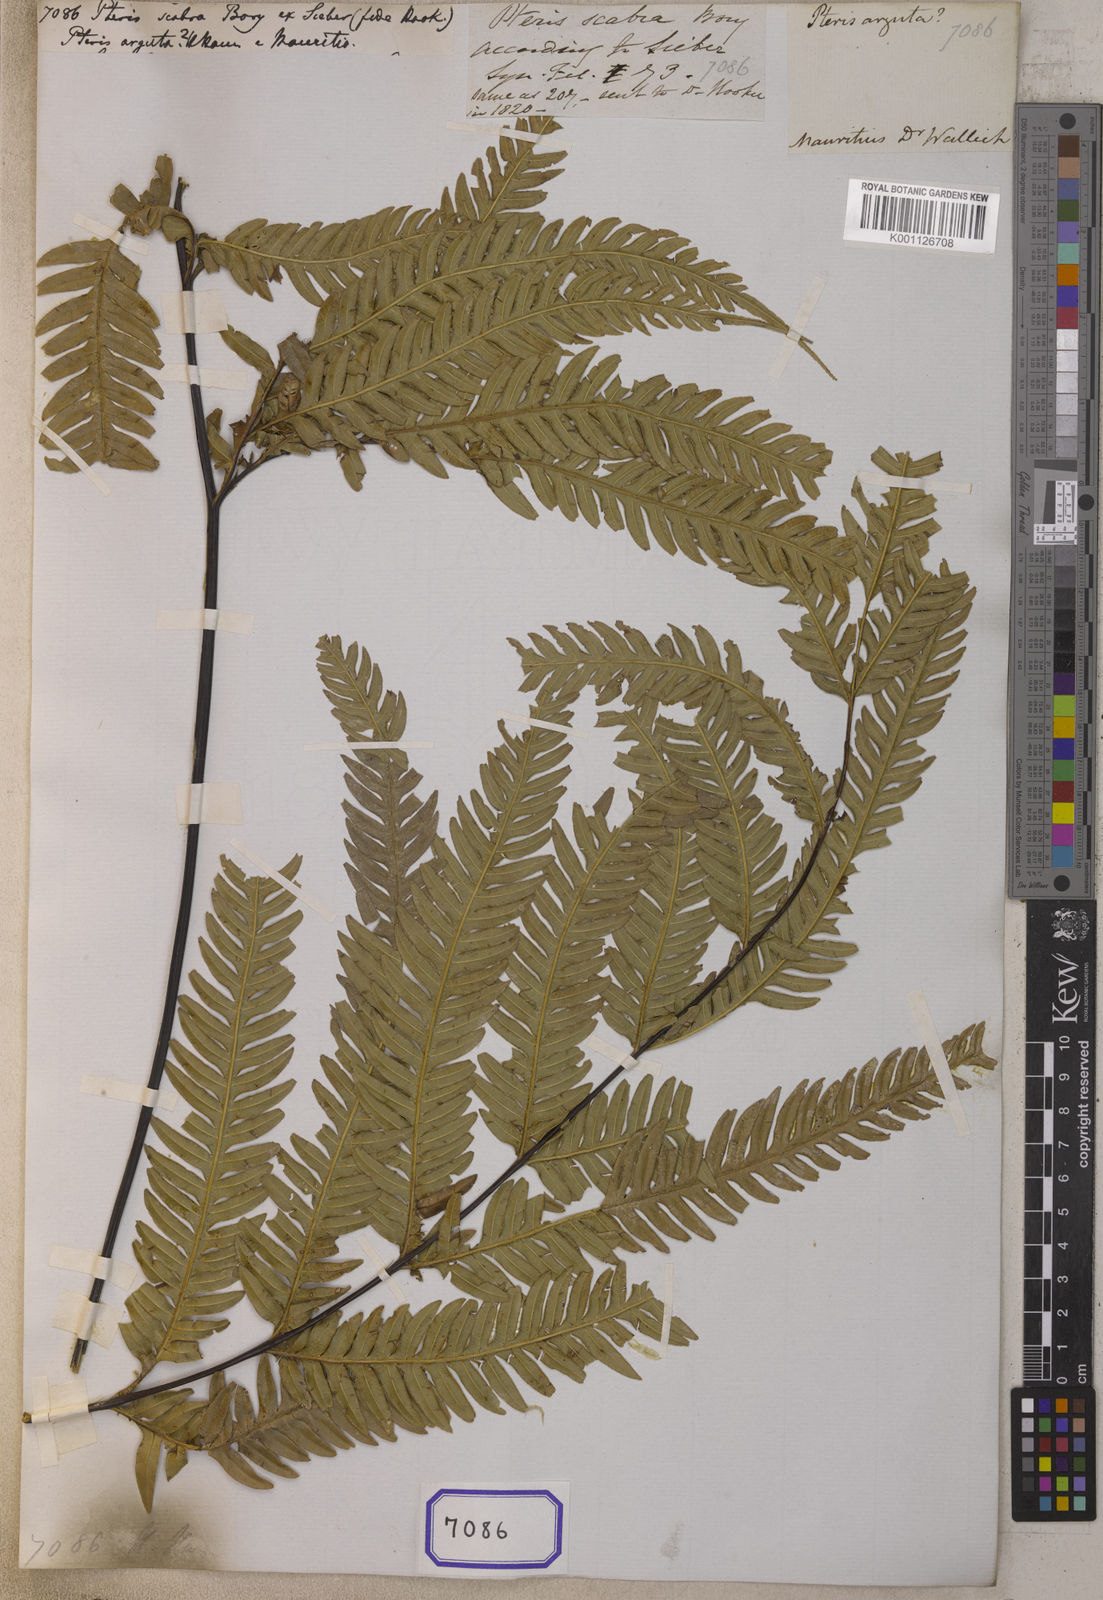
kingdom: Plantae
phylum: Tracheophyta
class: Polypodiopsida
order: Polypodiales
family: Pteridaceae
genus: Pteris
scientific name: Pteris
